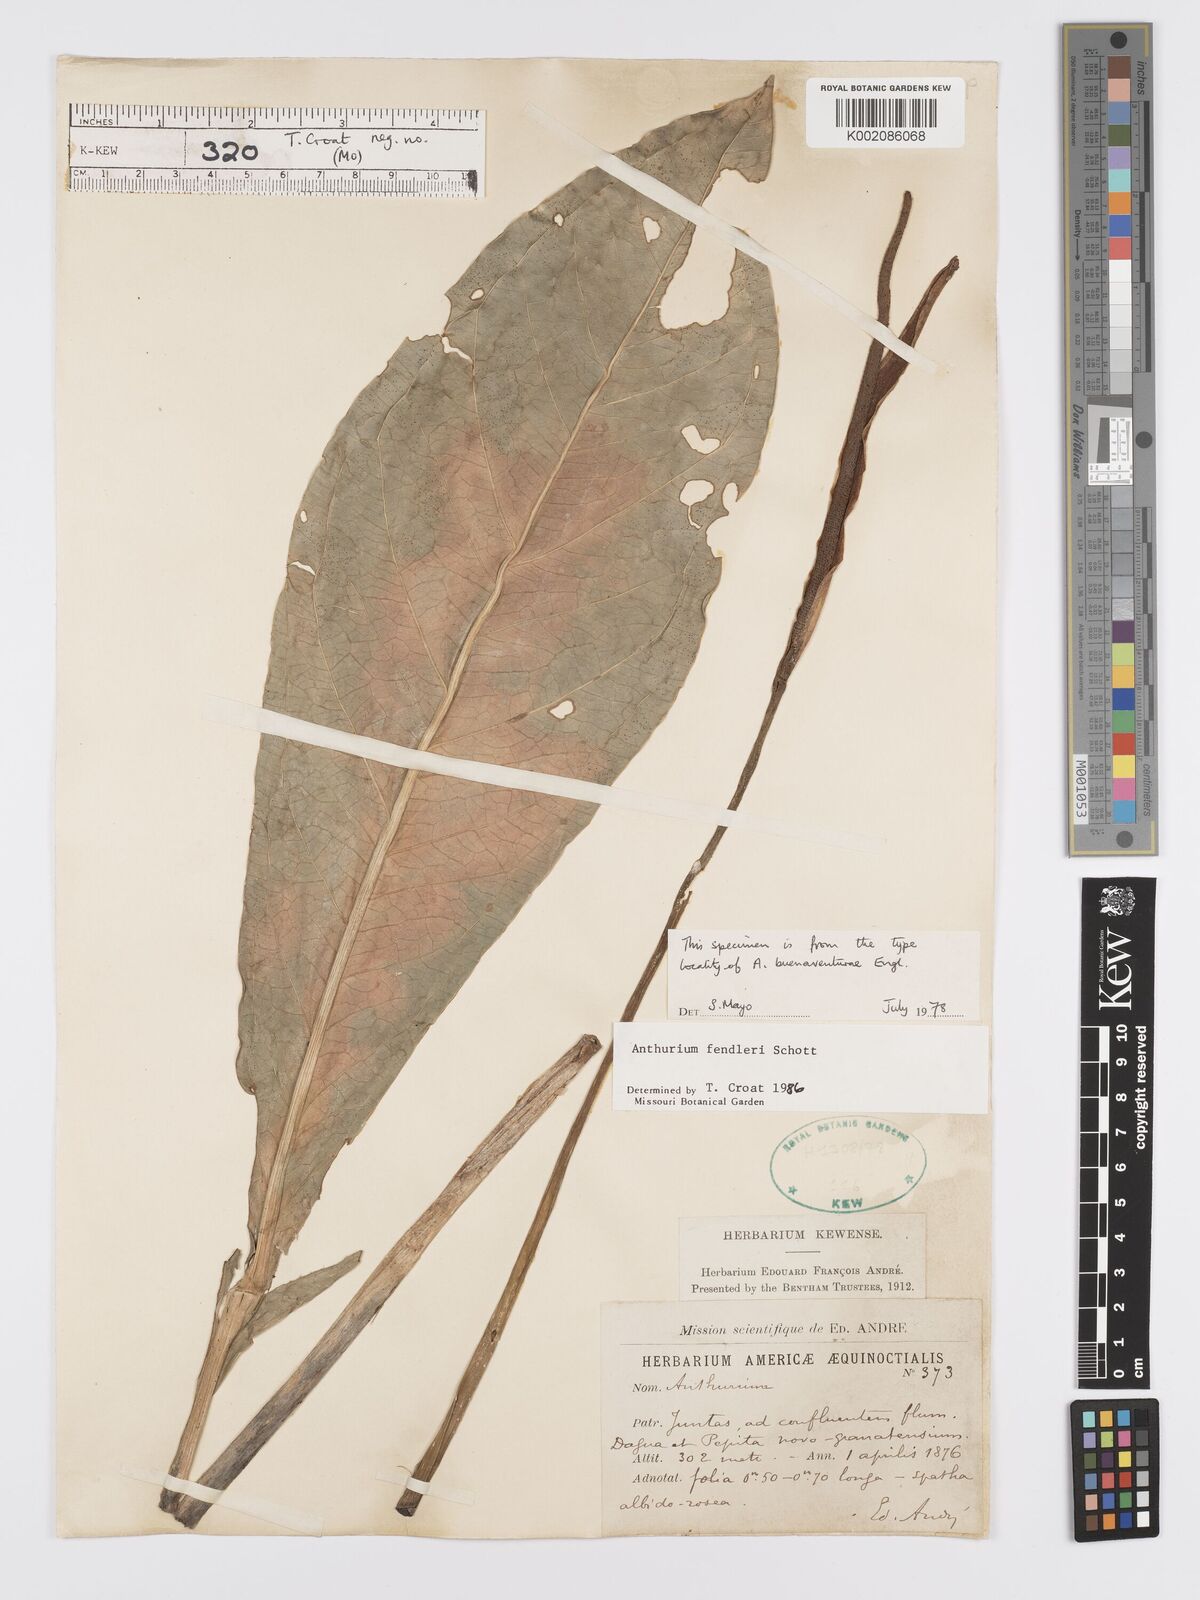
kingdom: Plantae
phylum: Tracheophyta
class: Liliopsida
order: Alismatales
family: Araceae
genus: Anthurium
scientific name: Anthurium fendleri
